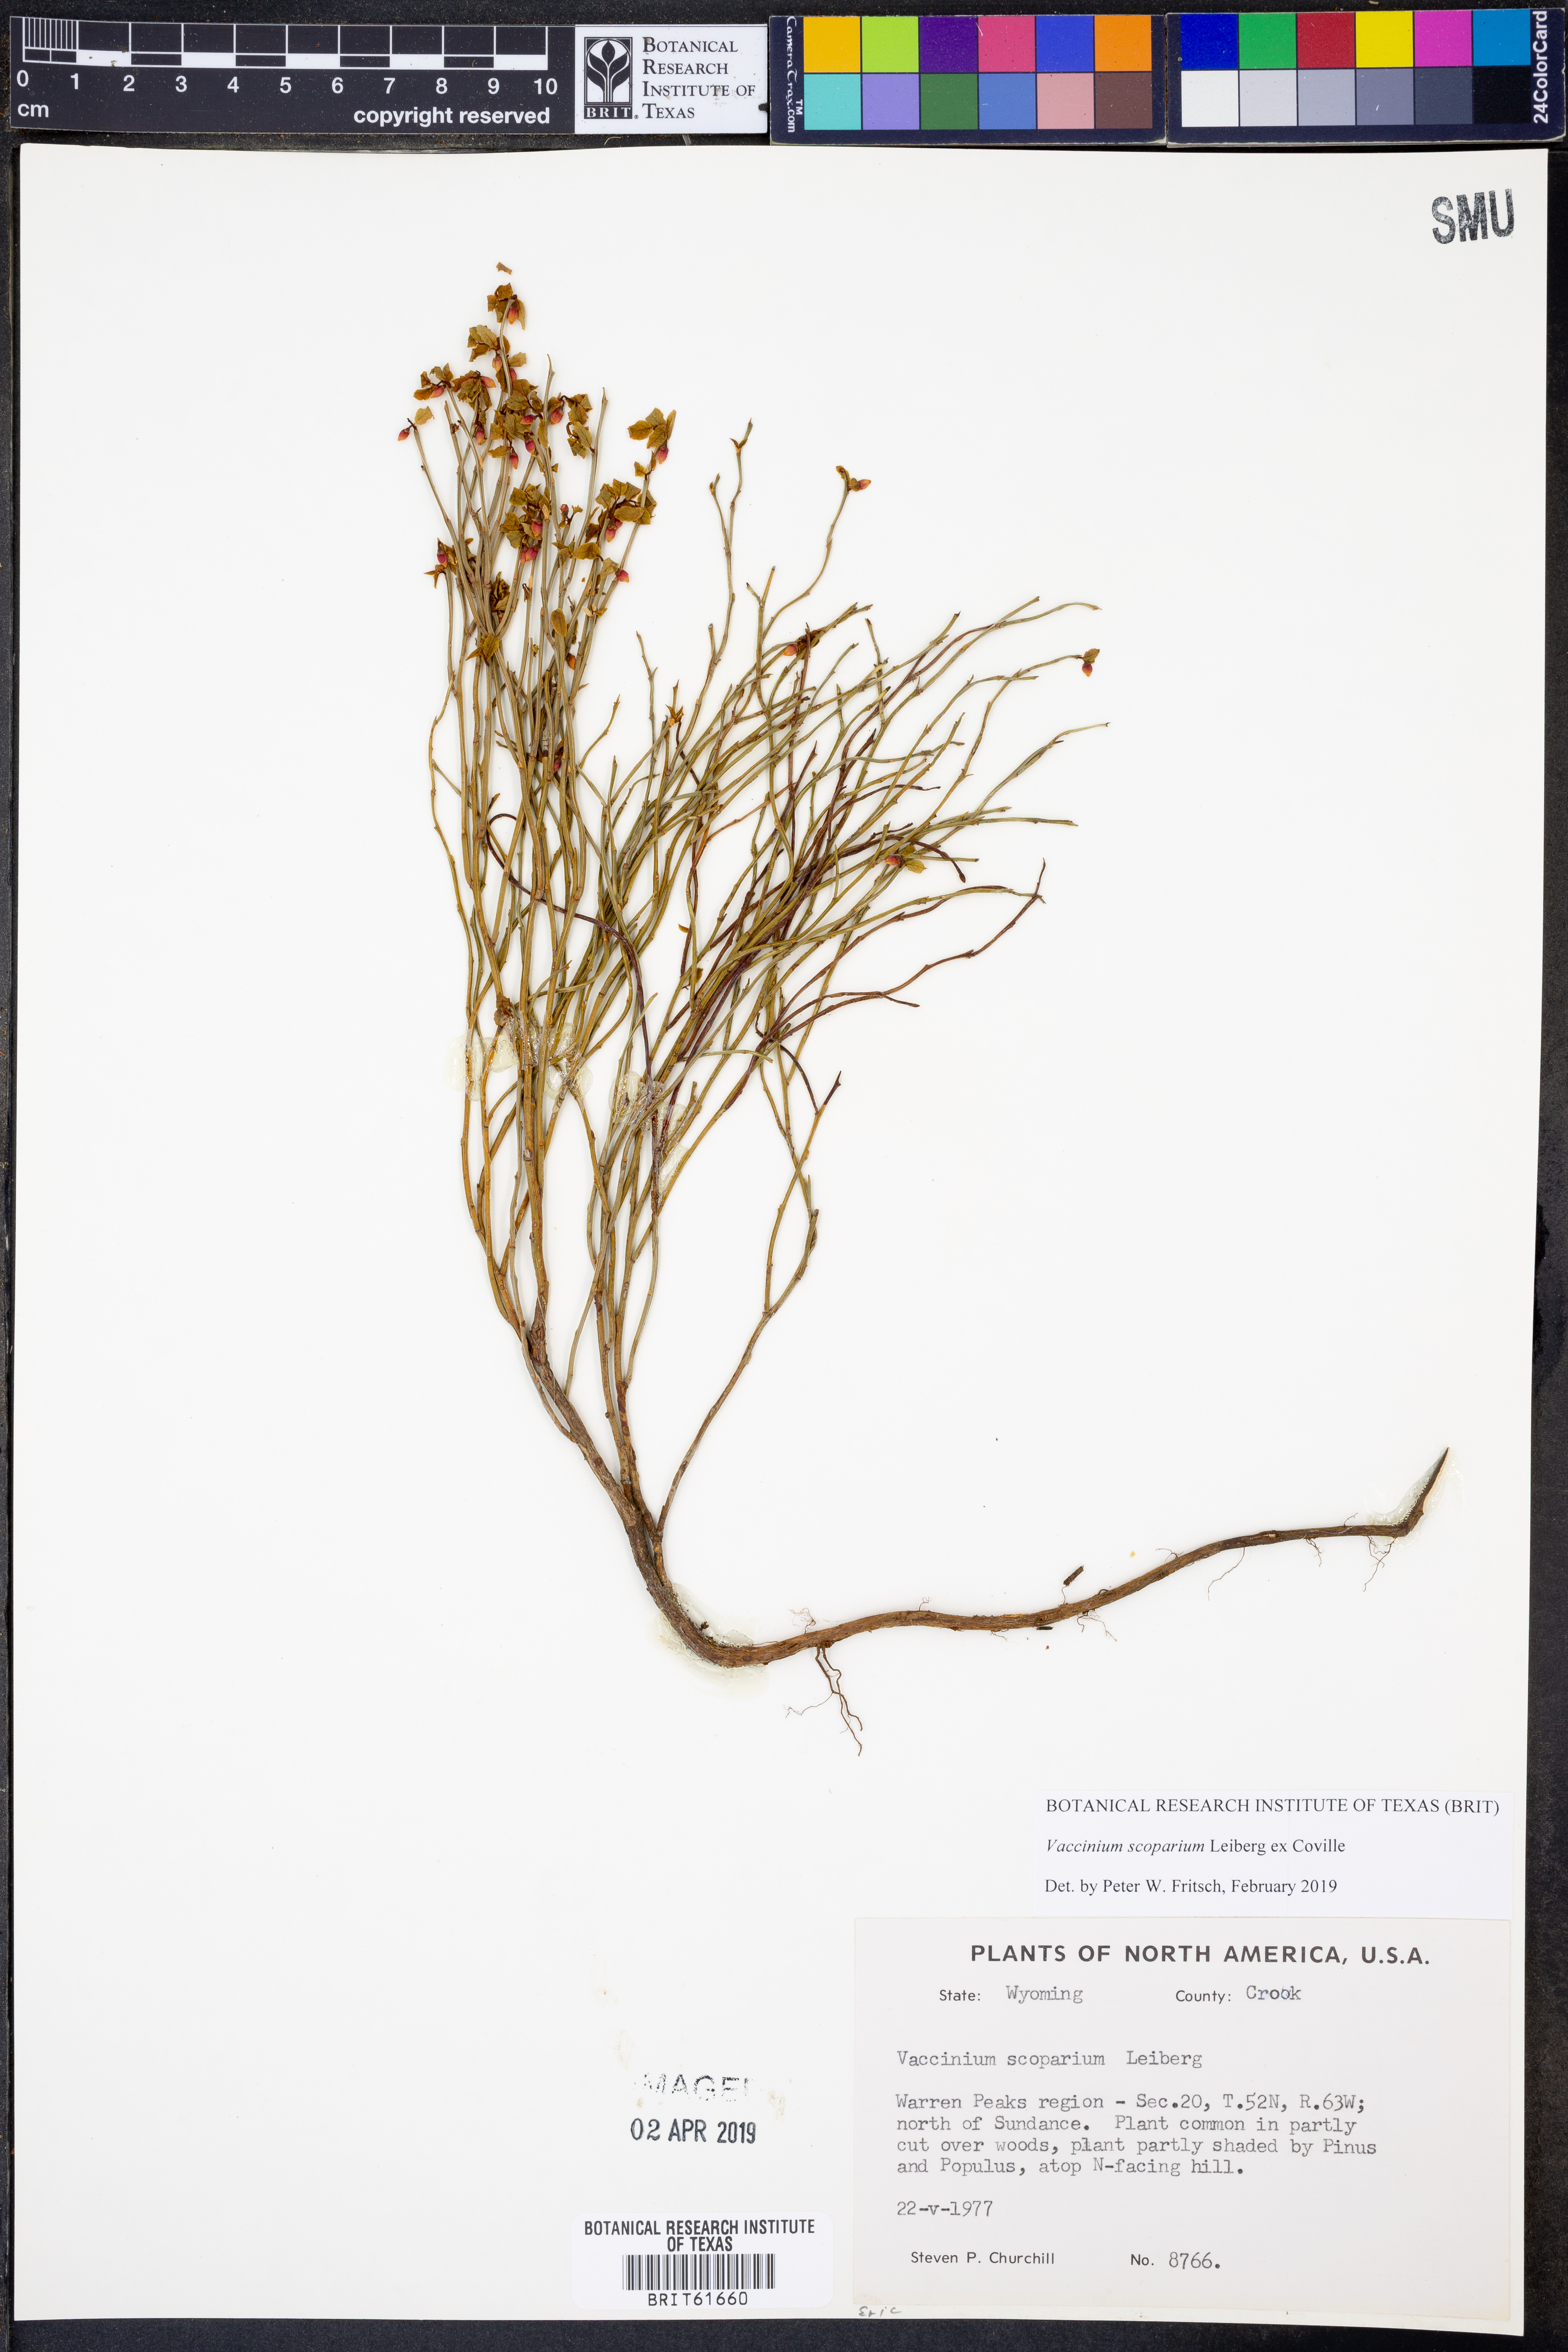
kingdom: Plantae
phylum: Tracheophyta
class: Magnoliopsida
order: Ericales
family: Ericaceae
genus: Vaccinium
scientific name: Vaccinium scoparium
